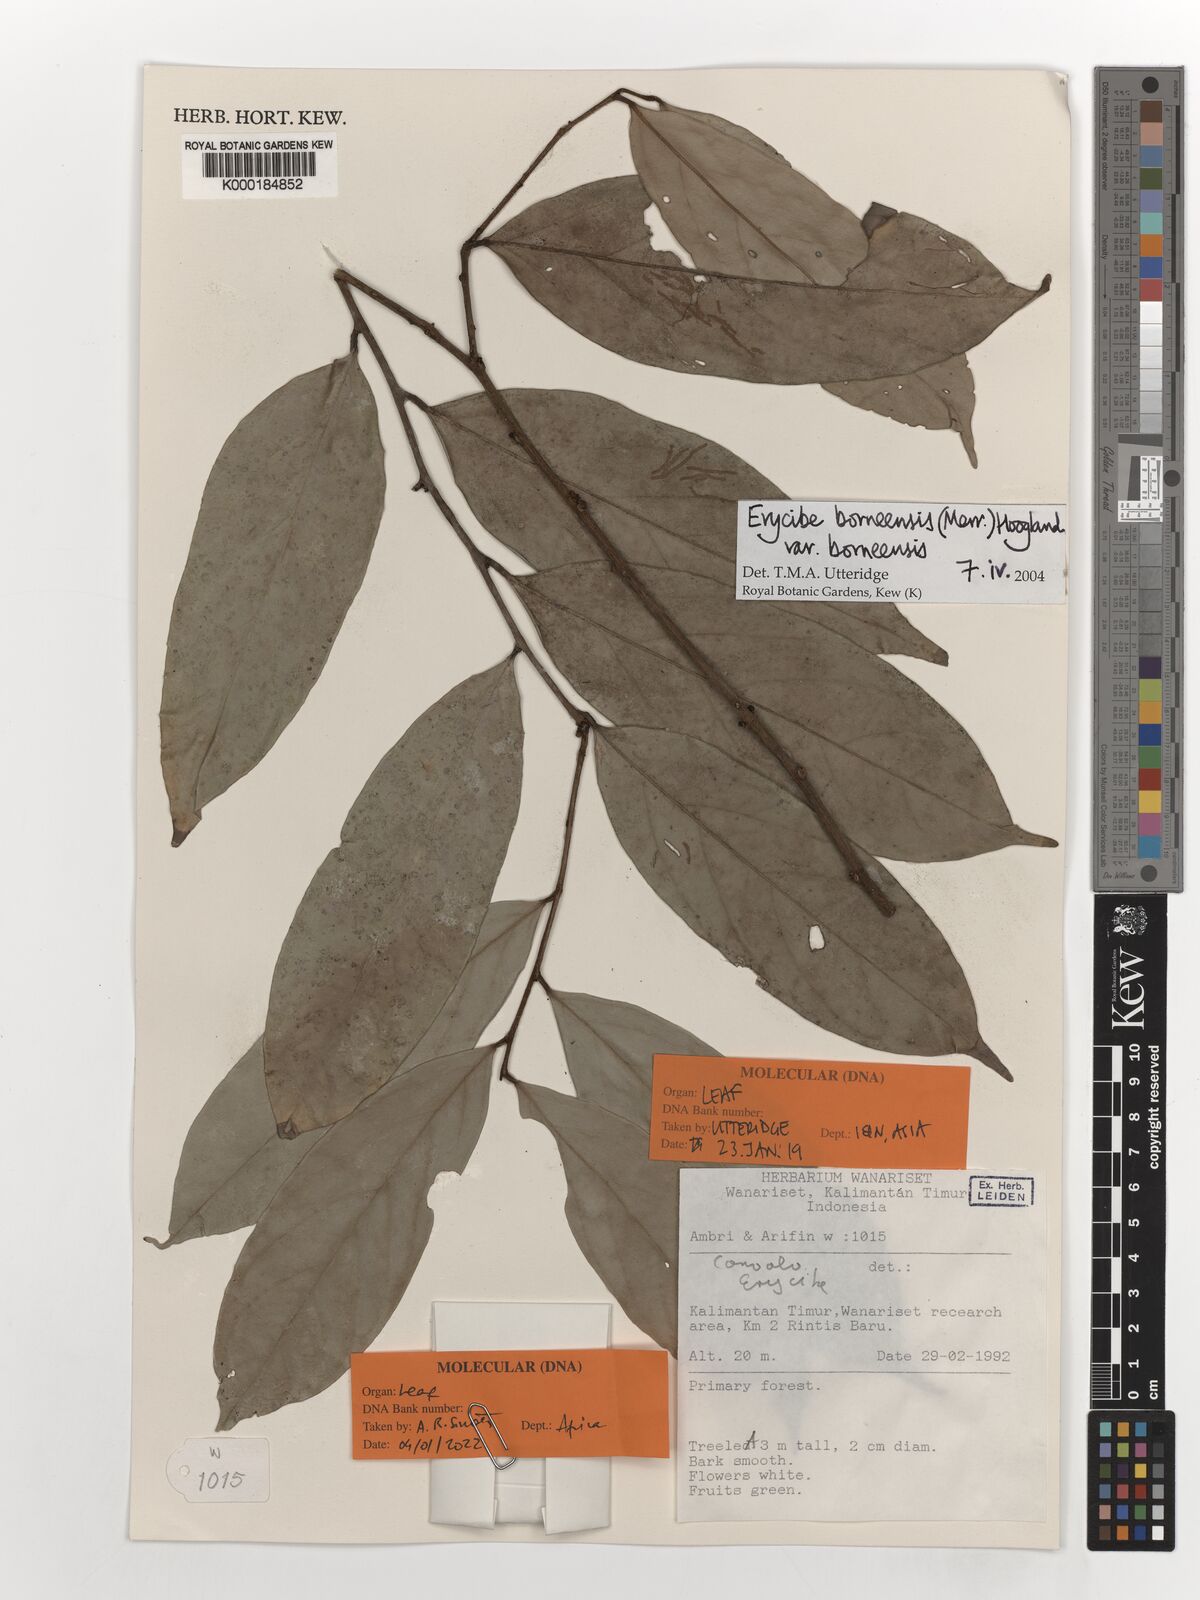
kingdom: Plantae
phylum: Tracheophyta
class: Magnoliopsida
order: Solanales
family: Convolvulaceae
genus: Erycibe
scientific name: Erycibe borneensis
